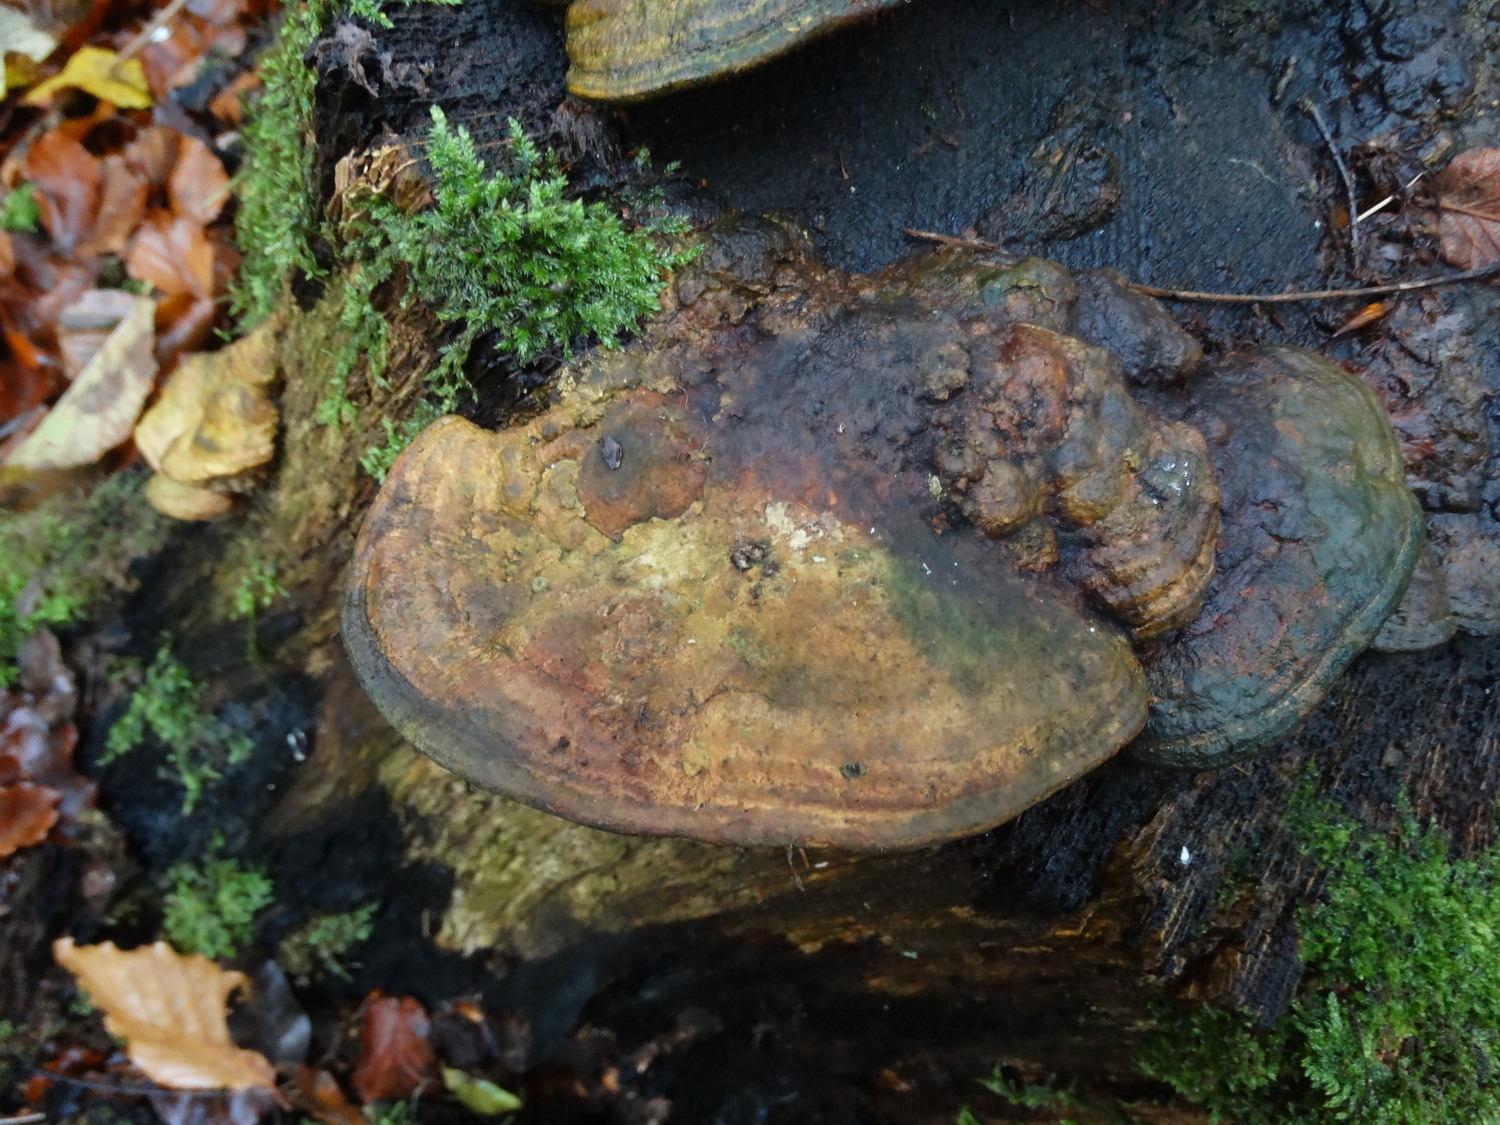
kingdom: Fungi
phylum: Basidiomycota
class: Agaricomycetes
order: Polyporales
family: Fomitopsidaceae
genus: Daedalea
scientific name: Daedalea quercina
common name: ege-labyrintsvamp
